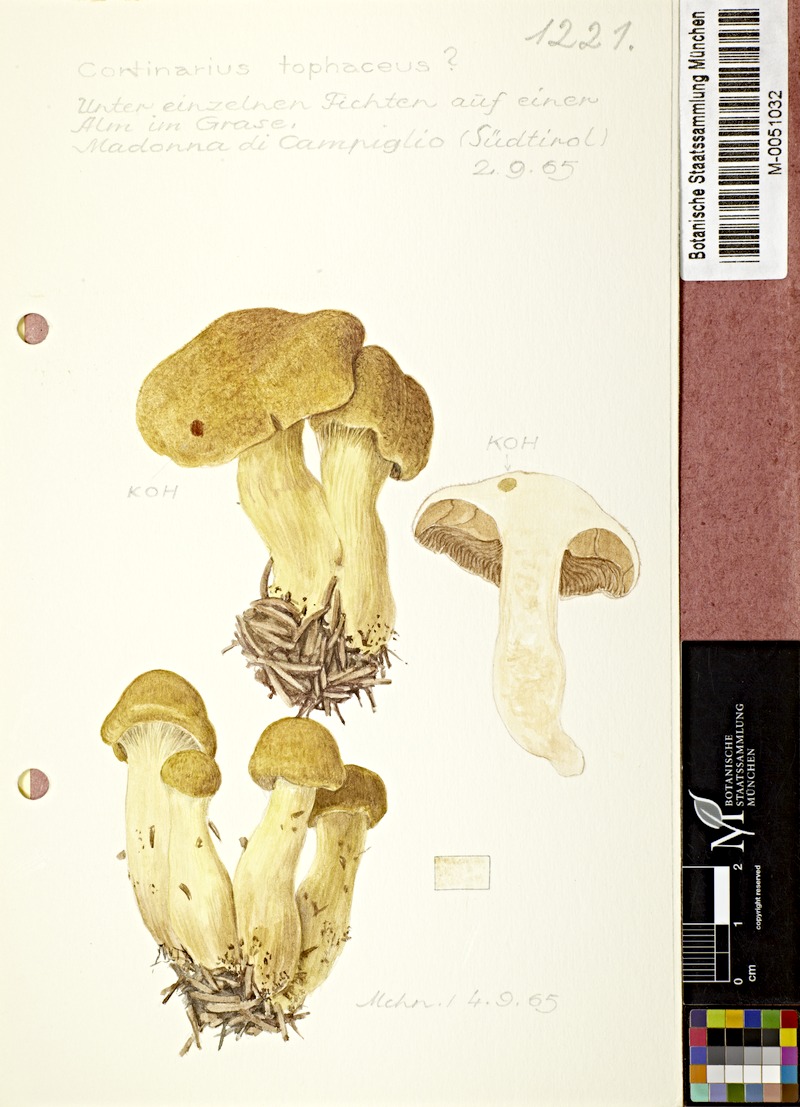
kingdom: Fungi
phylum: Basidiomycota
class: Agaricomycetes
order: Agaricales
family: Cortinariaceae
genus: Aureonarius
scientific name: Aureonarius tofaceus
